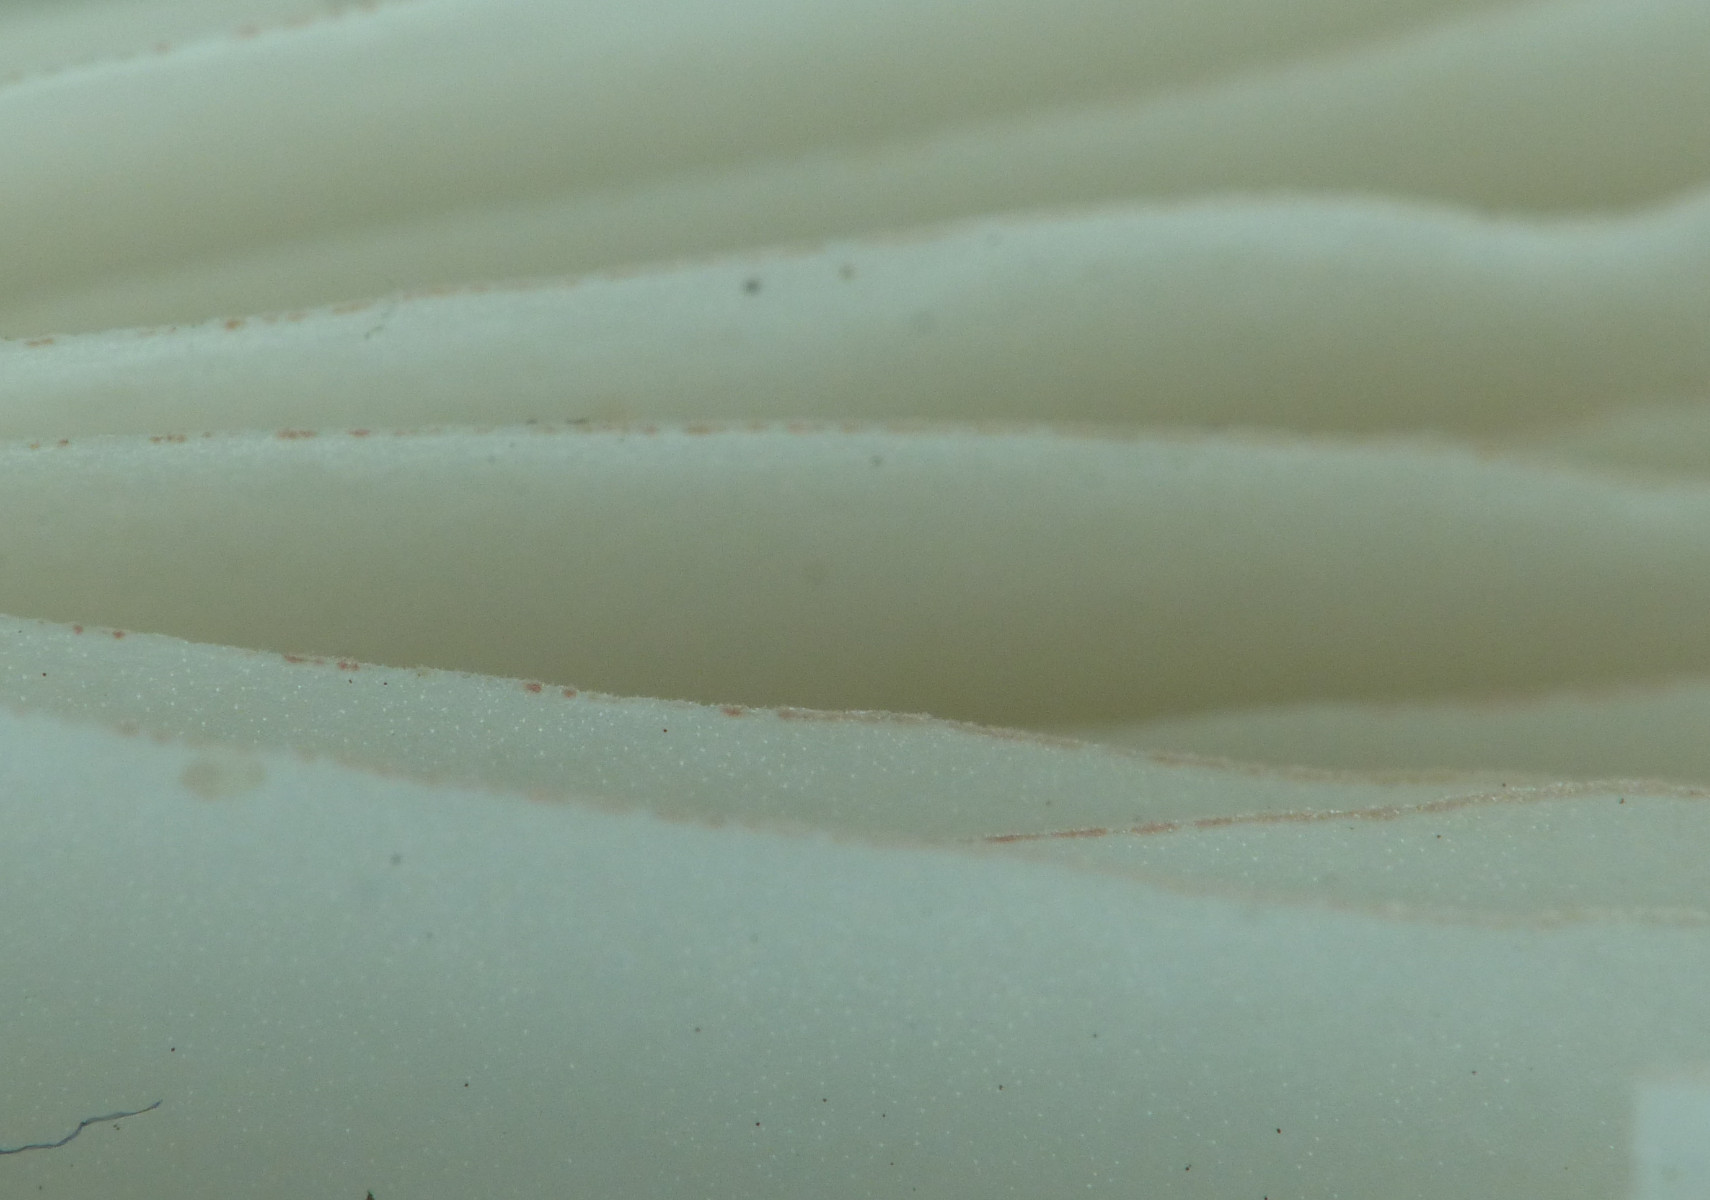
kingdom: Fungi
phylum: Basidiomycota
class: Agaricomycetes
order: Agaricales
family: Psathyrellaceae
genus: Psathyrella
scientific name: Psathyrella
